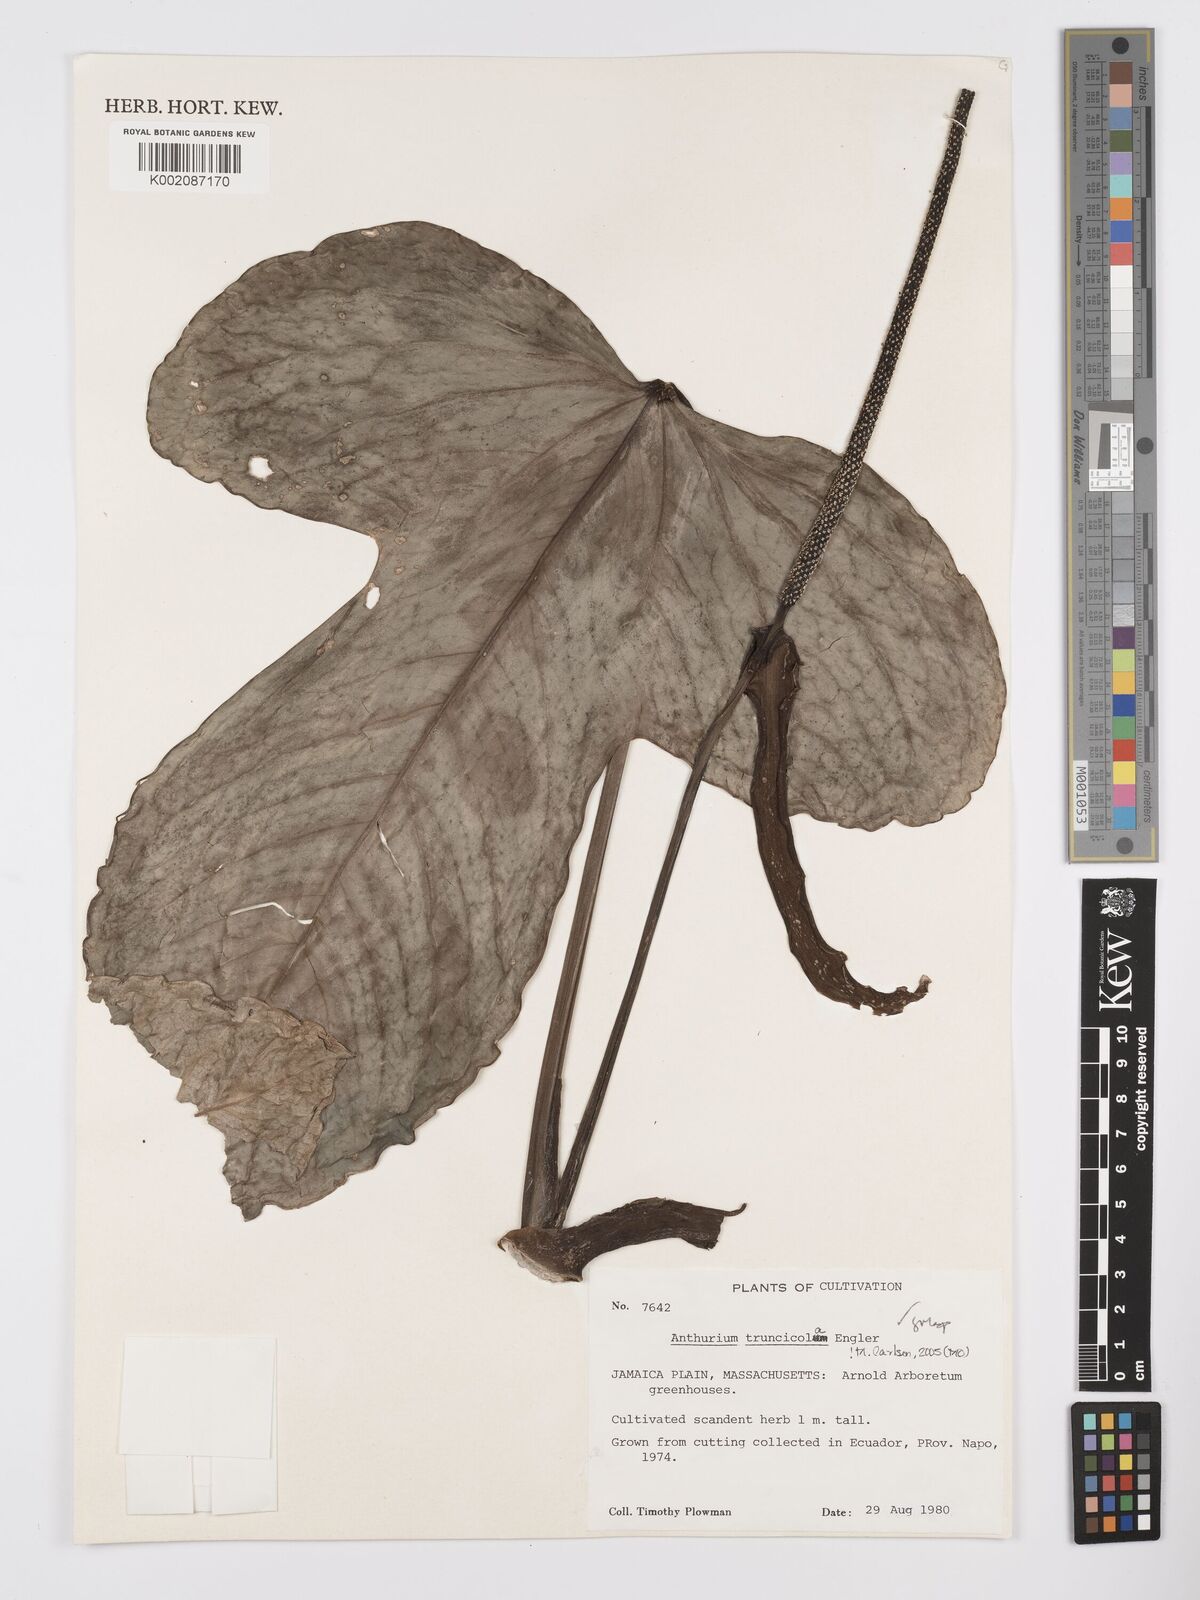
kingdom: Plantae
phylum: Tracheophyta
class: Liliopsida
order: Alismatales
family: Araceae
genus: Anthurium
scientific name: Anthurium truncicola
